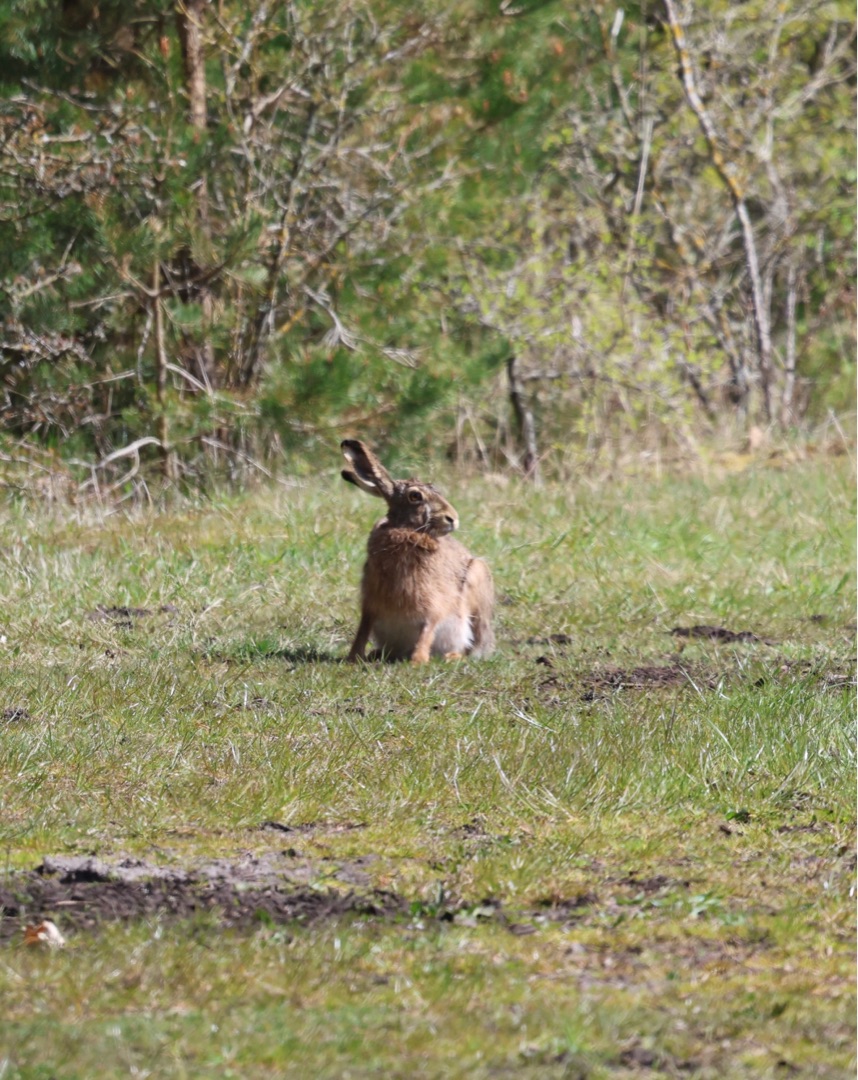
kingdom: Animalia
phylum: Chordata
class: Mammalia
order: Lagomorpha
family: Leporidae
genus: Lepus
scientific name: Lepus europaeus
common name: Hare
